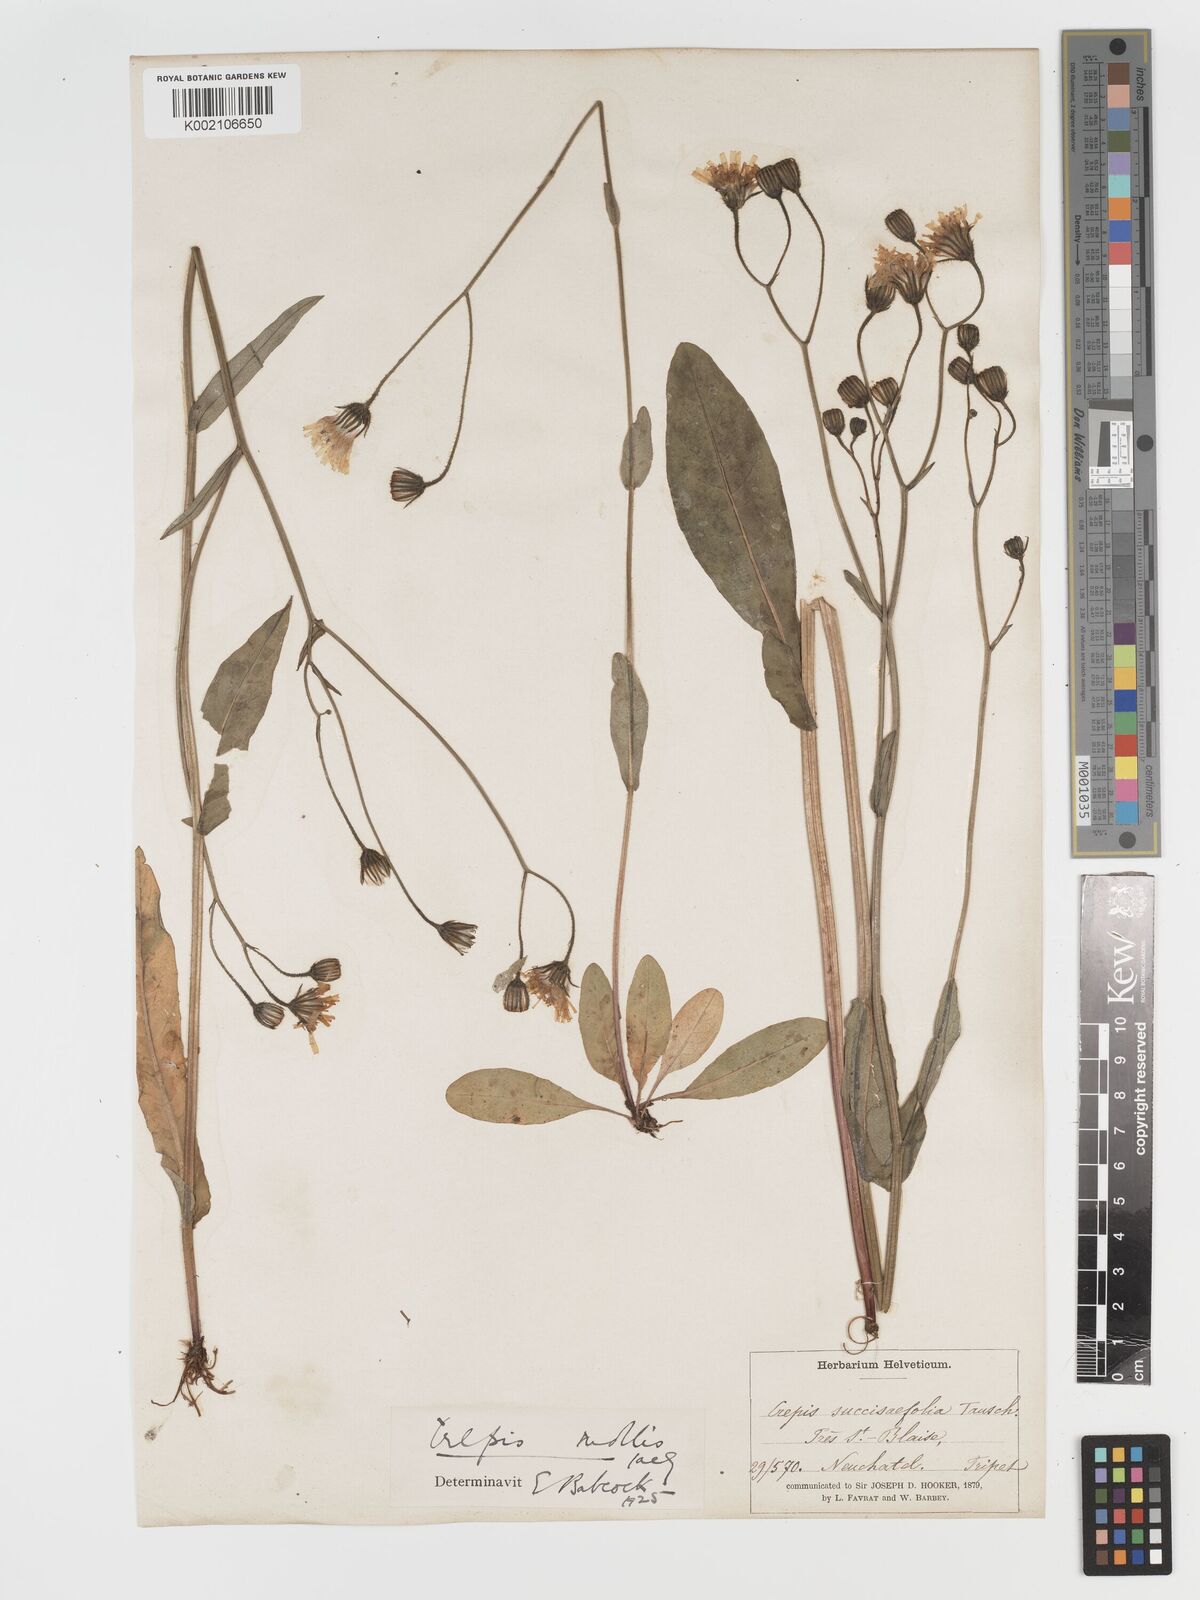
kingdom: Plantae
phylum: Tracheophyta
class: Magnoliopsida
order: Asterales
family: Asteraceae
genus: Crepis
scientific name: Crepis mollis
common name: Northern hawk's-beard
